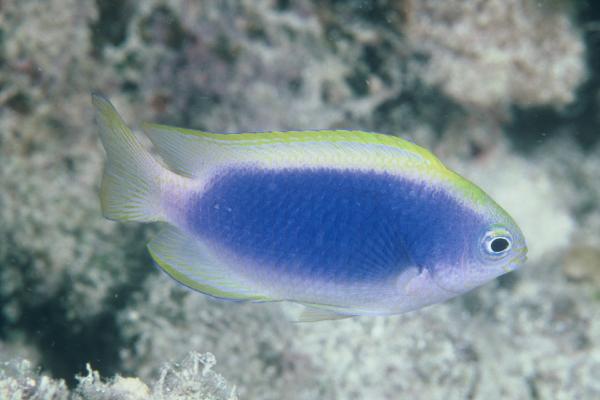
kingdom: Animalia
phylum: Chordata
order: Perciformes
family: Pomacentridae
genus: Chrysiptera
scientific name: Chrysiptera flavipinnis
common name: Yellowfin damsel
